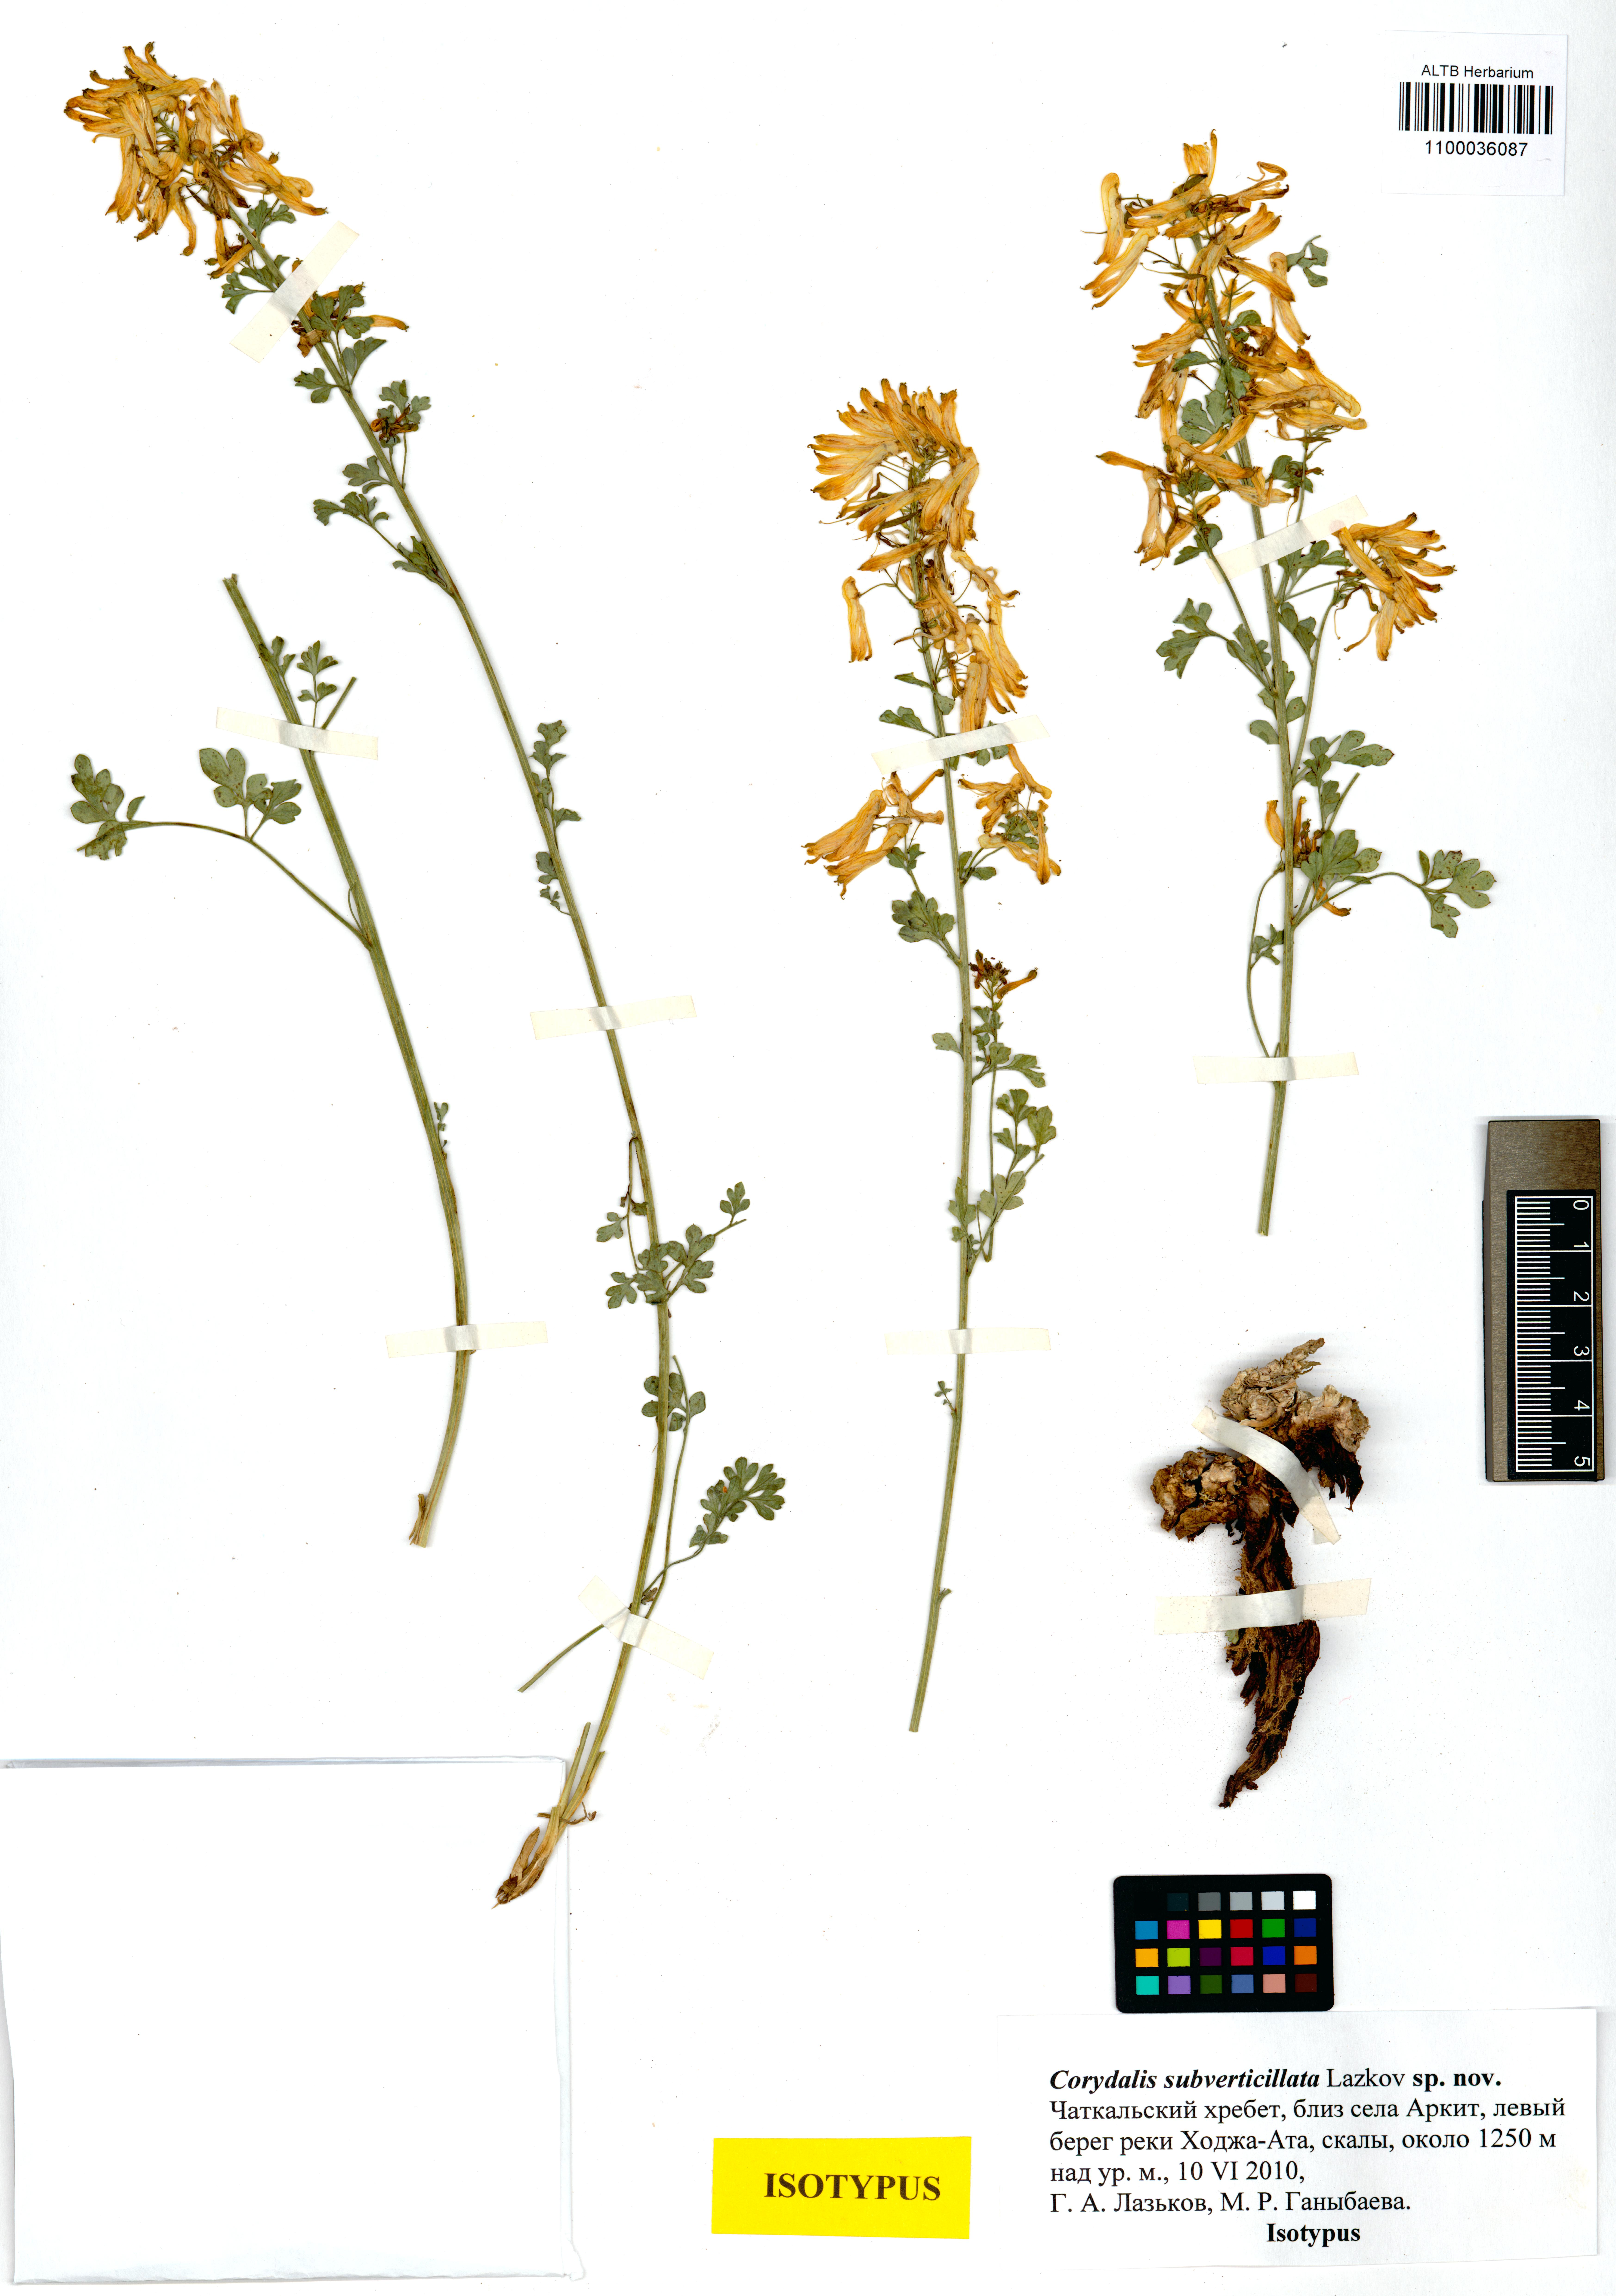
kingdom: Plantae
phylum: Tracheophyta
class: Magnoliopsida
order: Ranunculales
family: Papaveraceae
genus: Corydalis
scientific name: Corydalis subverticillata
